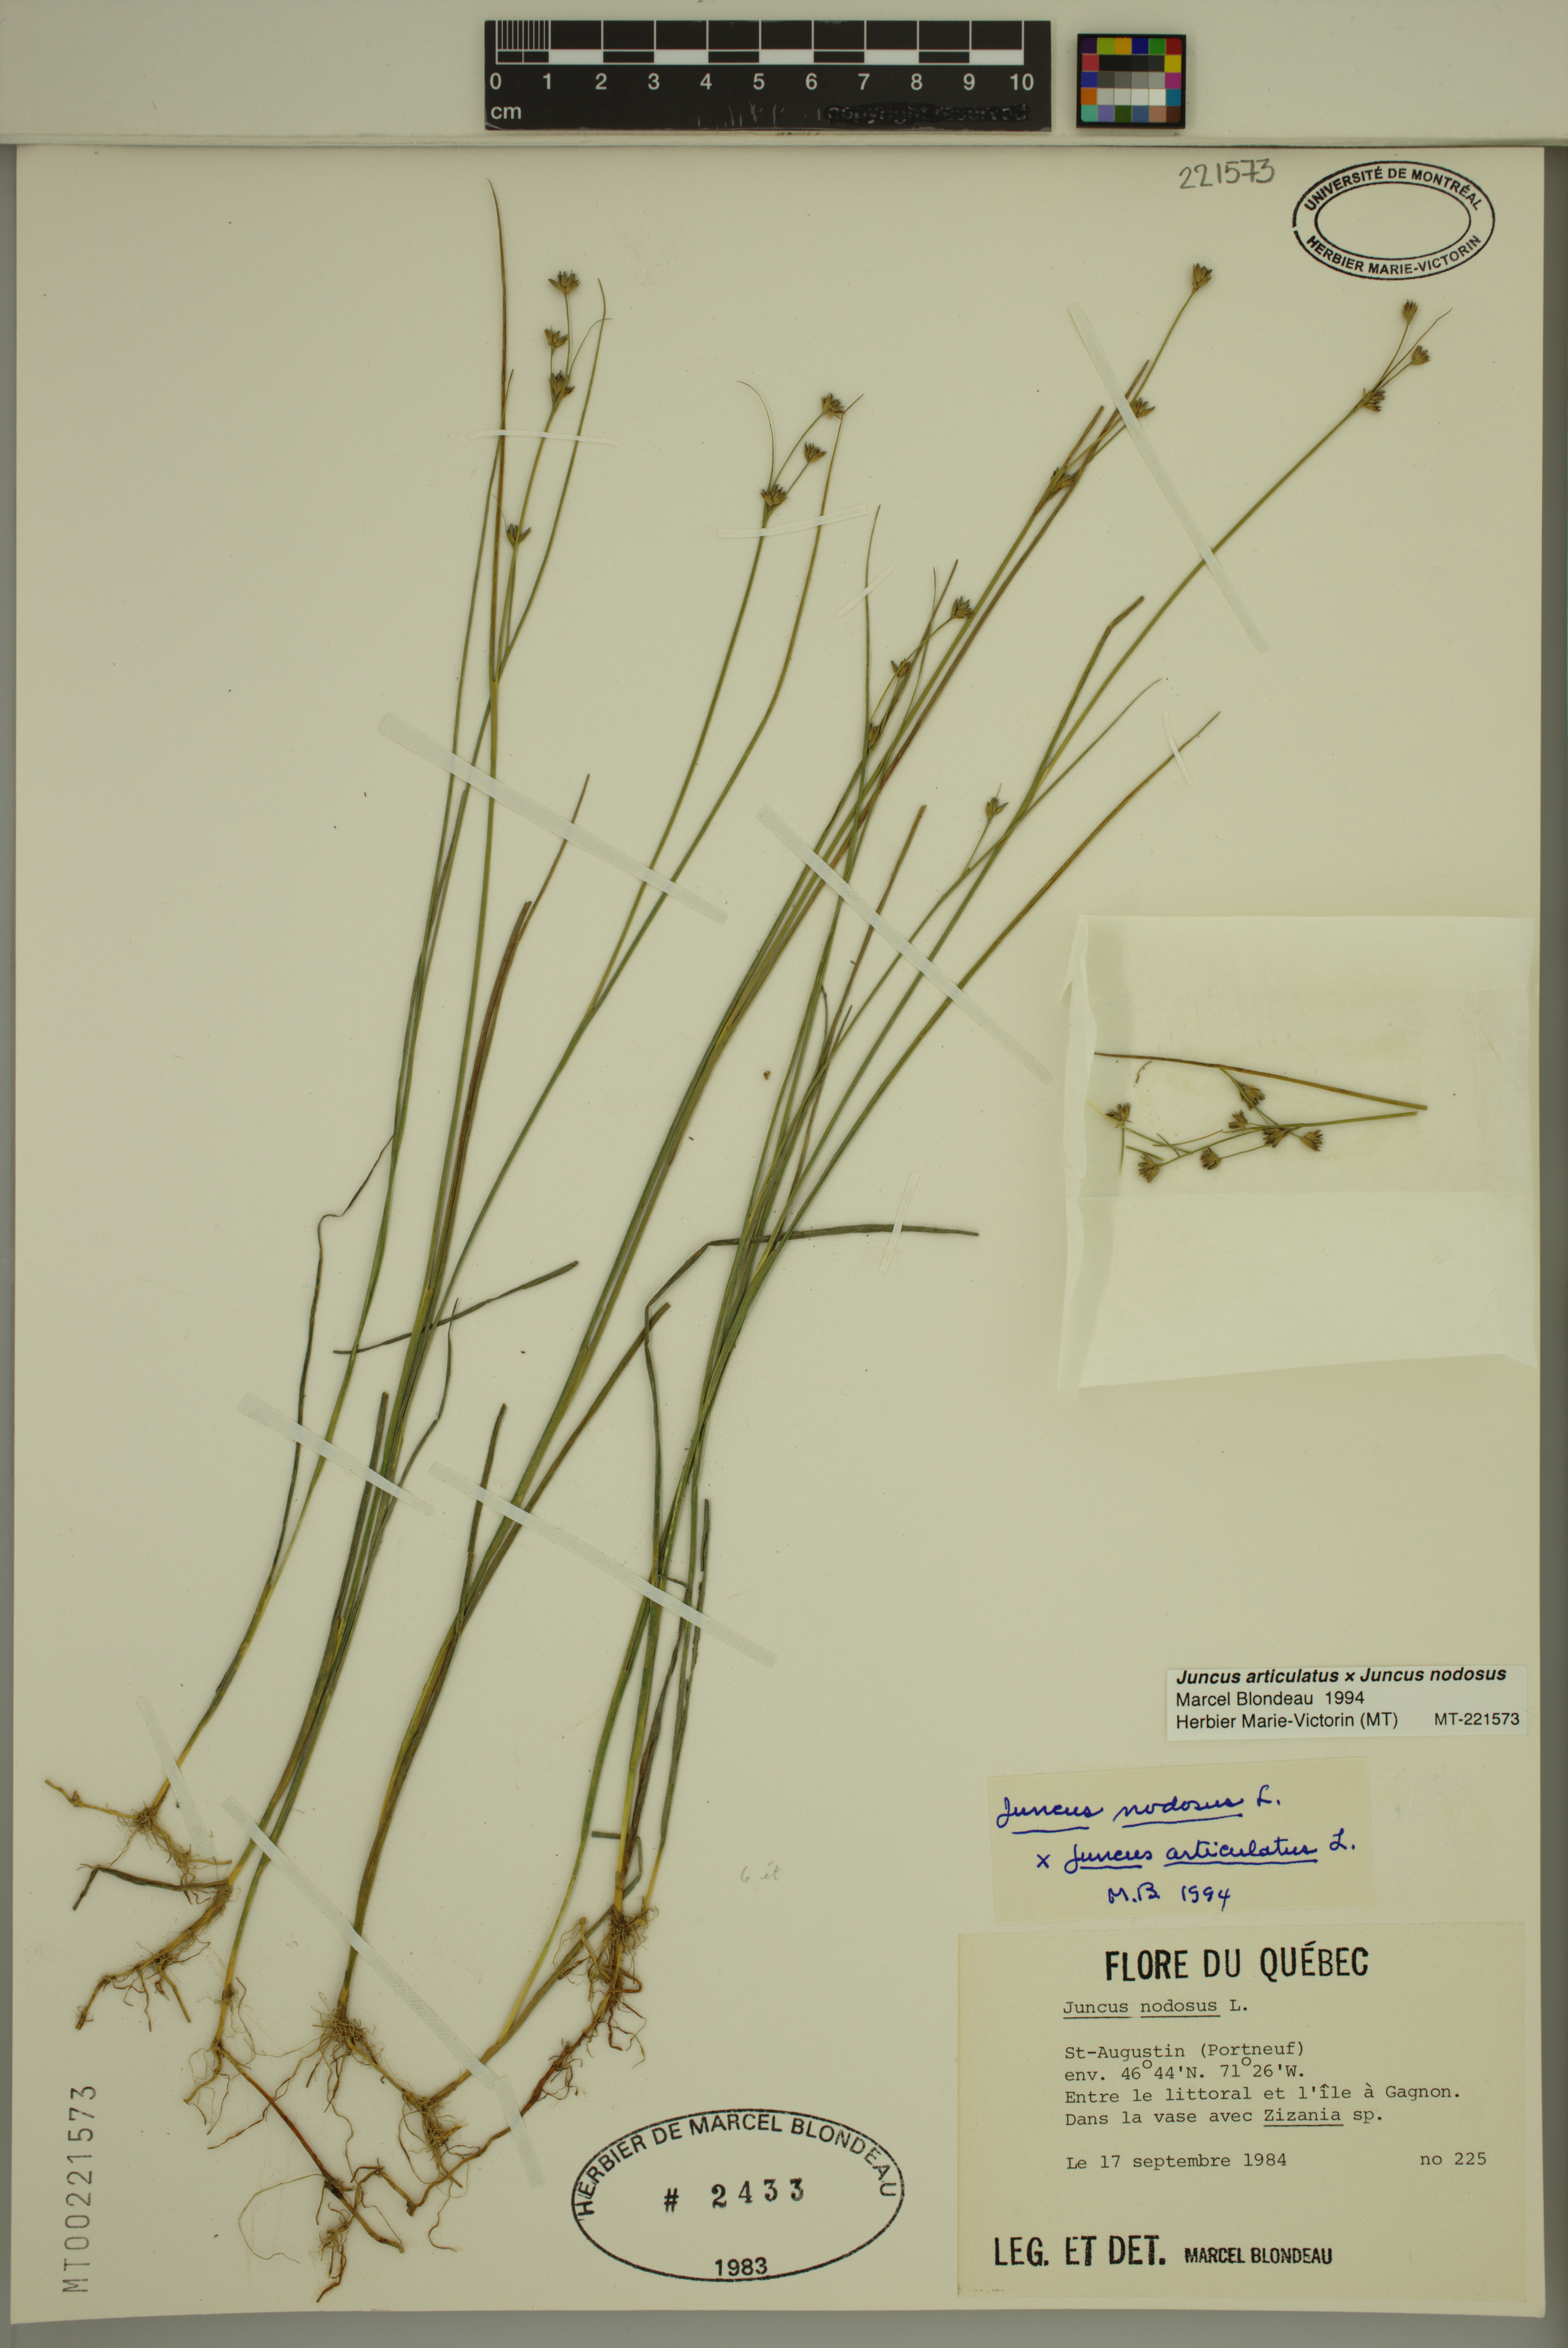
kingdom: Plantae
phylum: Tracheophyta
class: Liliopsida
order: Poales
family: Juncaceae
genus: Juncus
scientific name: Juncus alpinoarticulatus
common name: Alpine rush
